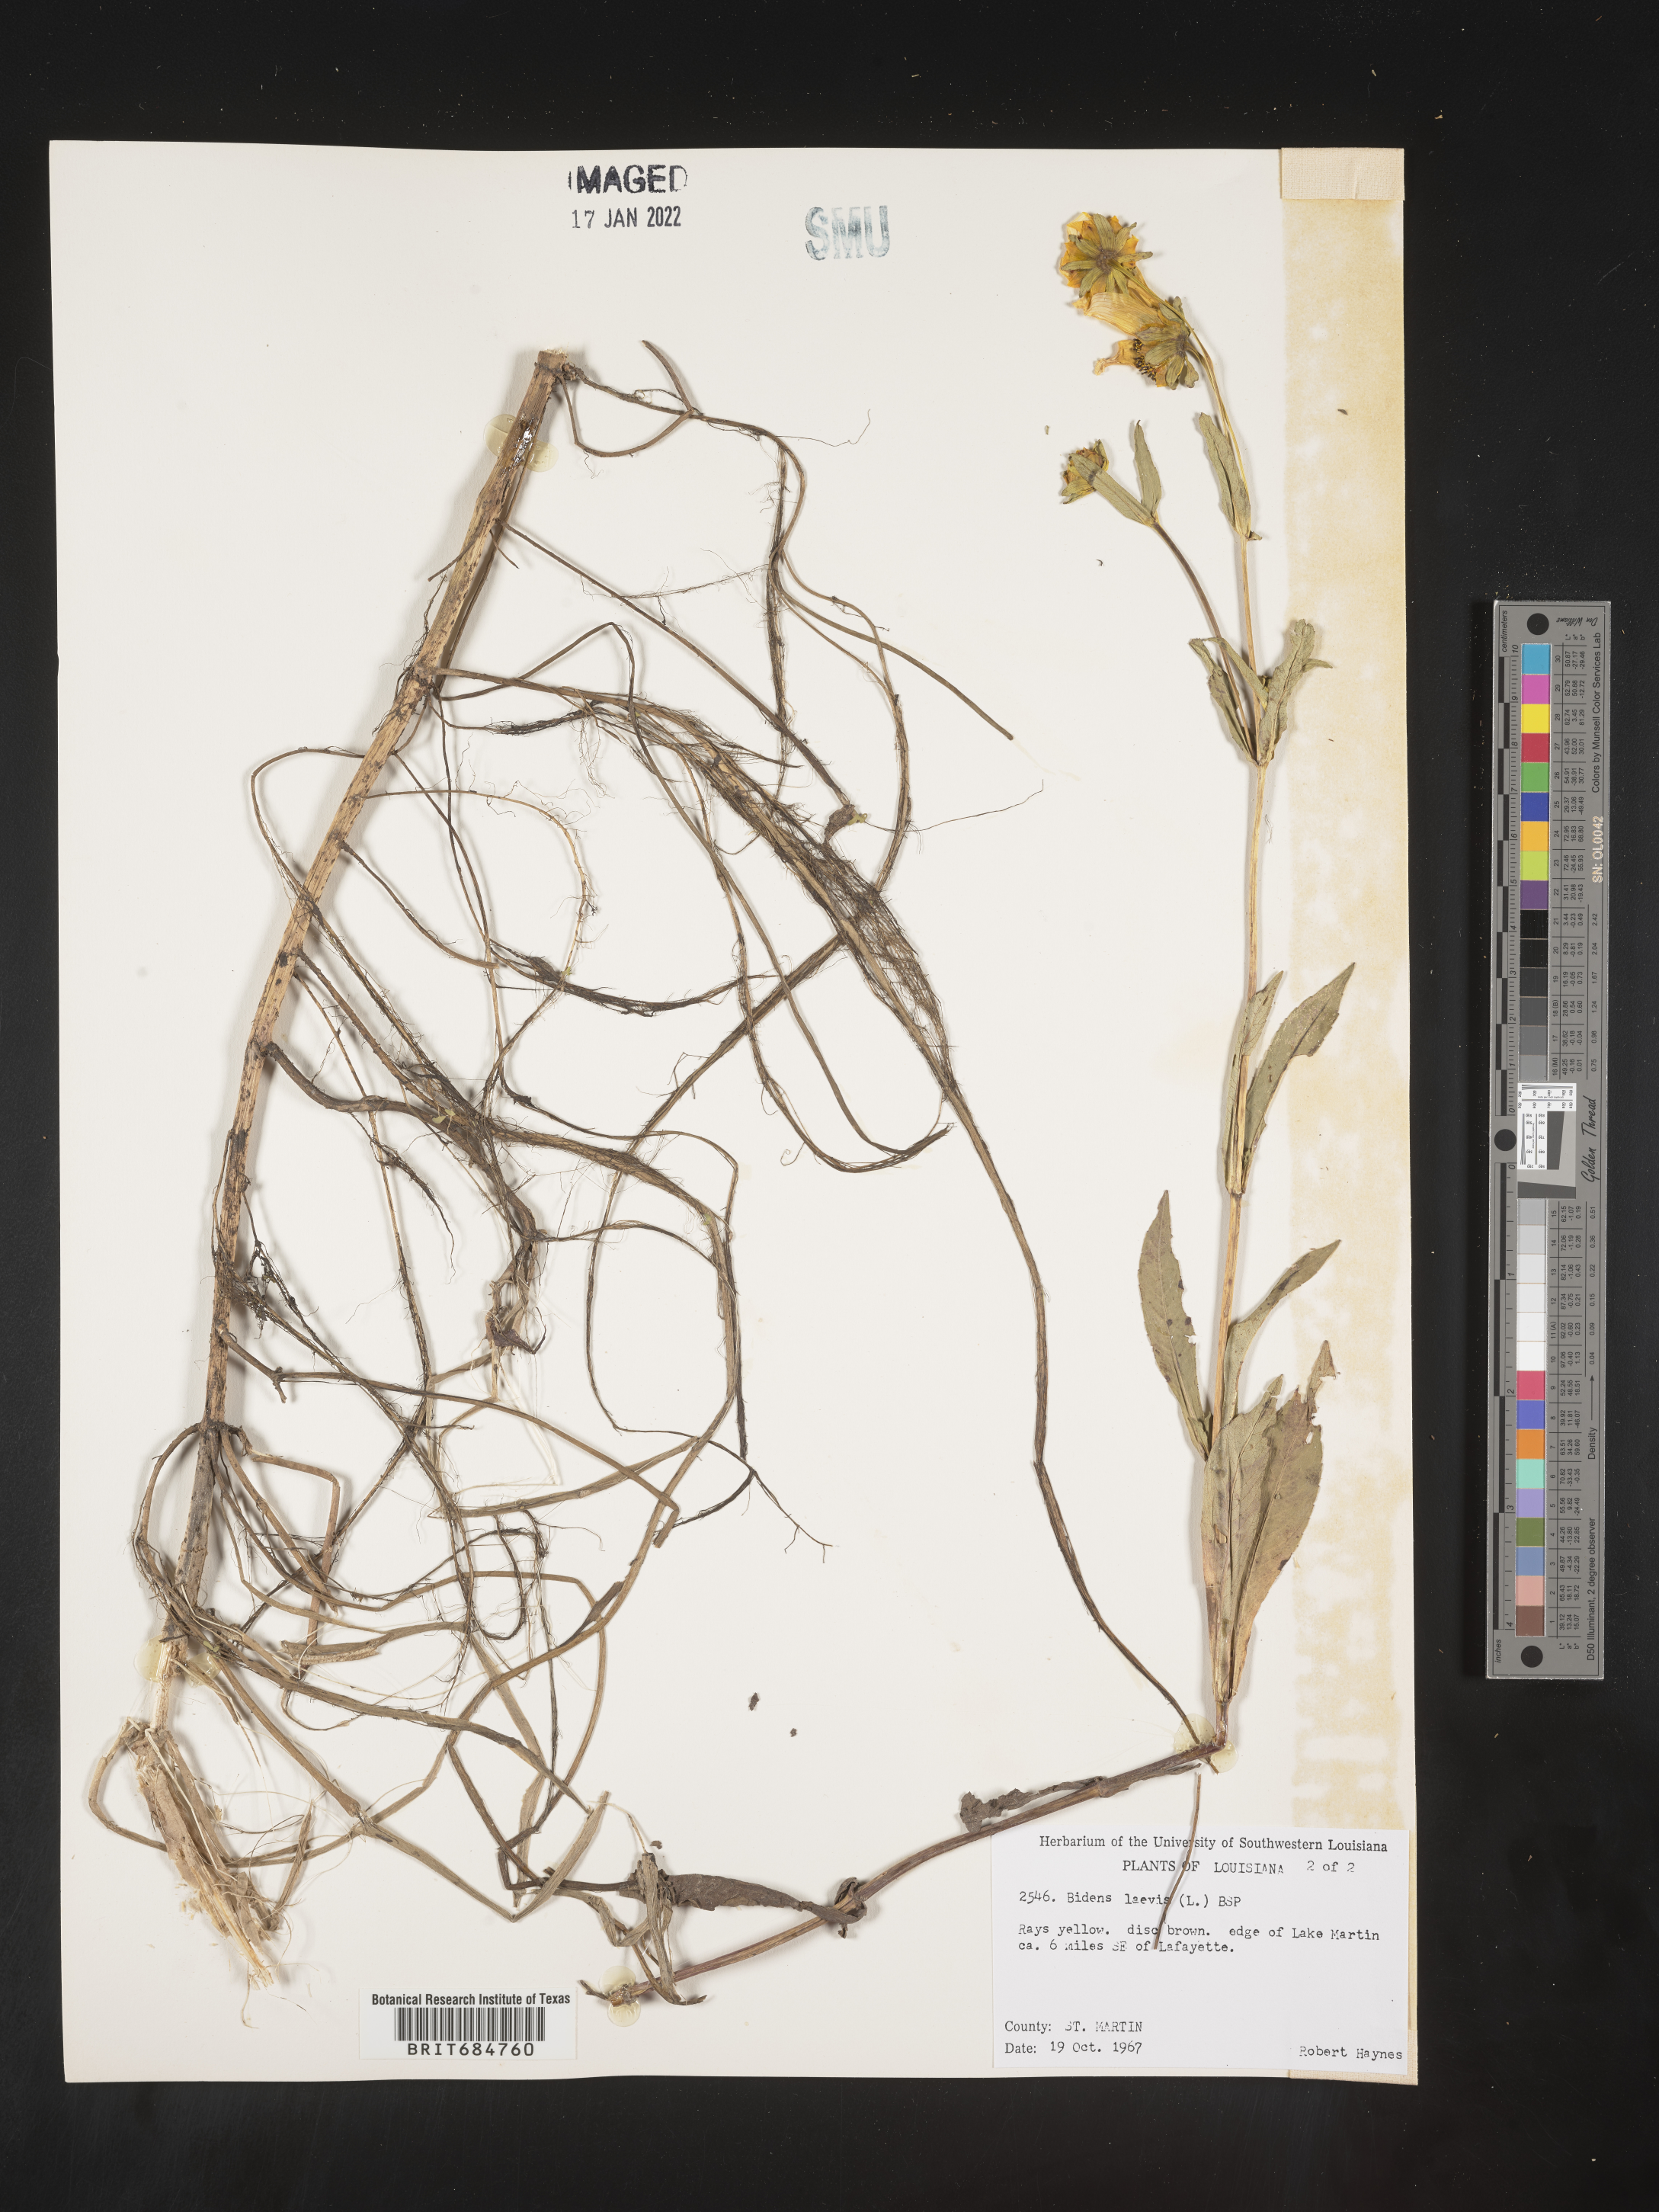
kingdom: Plantae
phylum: Tracheophyta
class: Magnoliopsida
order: Asterales
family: Asteraceae
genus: Bidens
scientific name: Bidens laevis
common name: Larger bur-marigold
